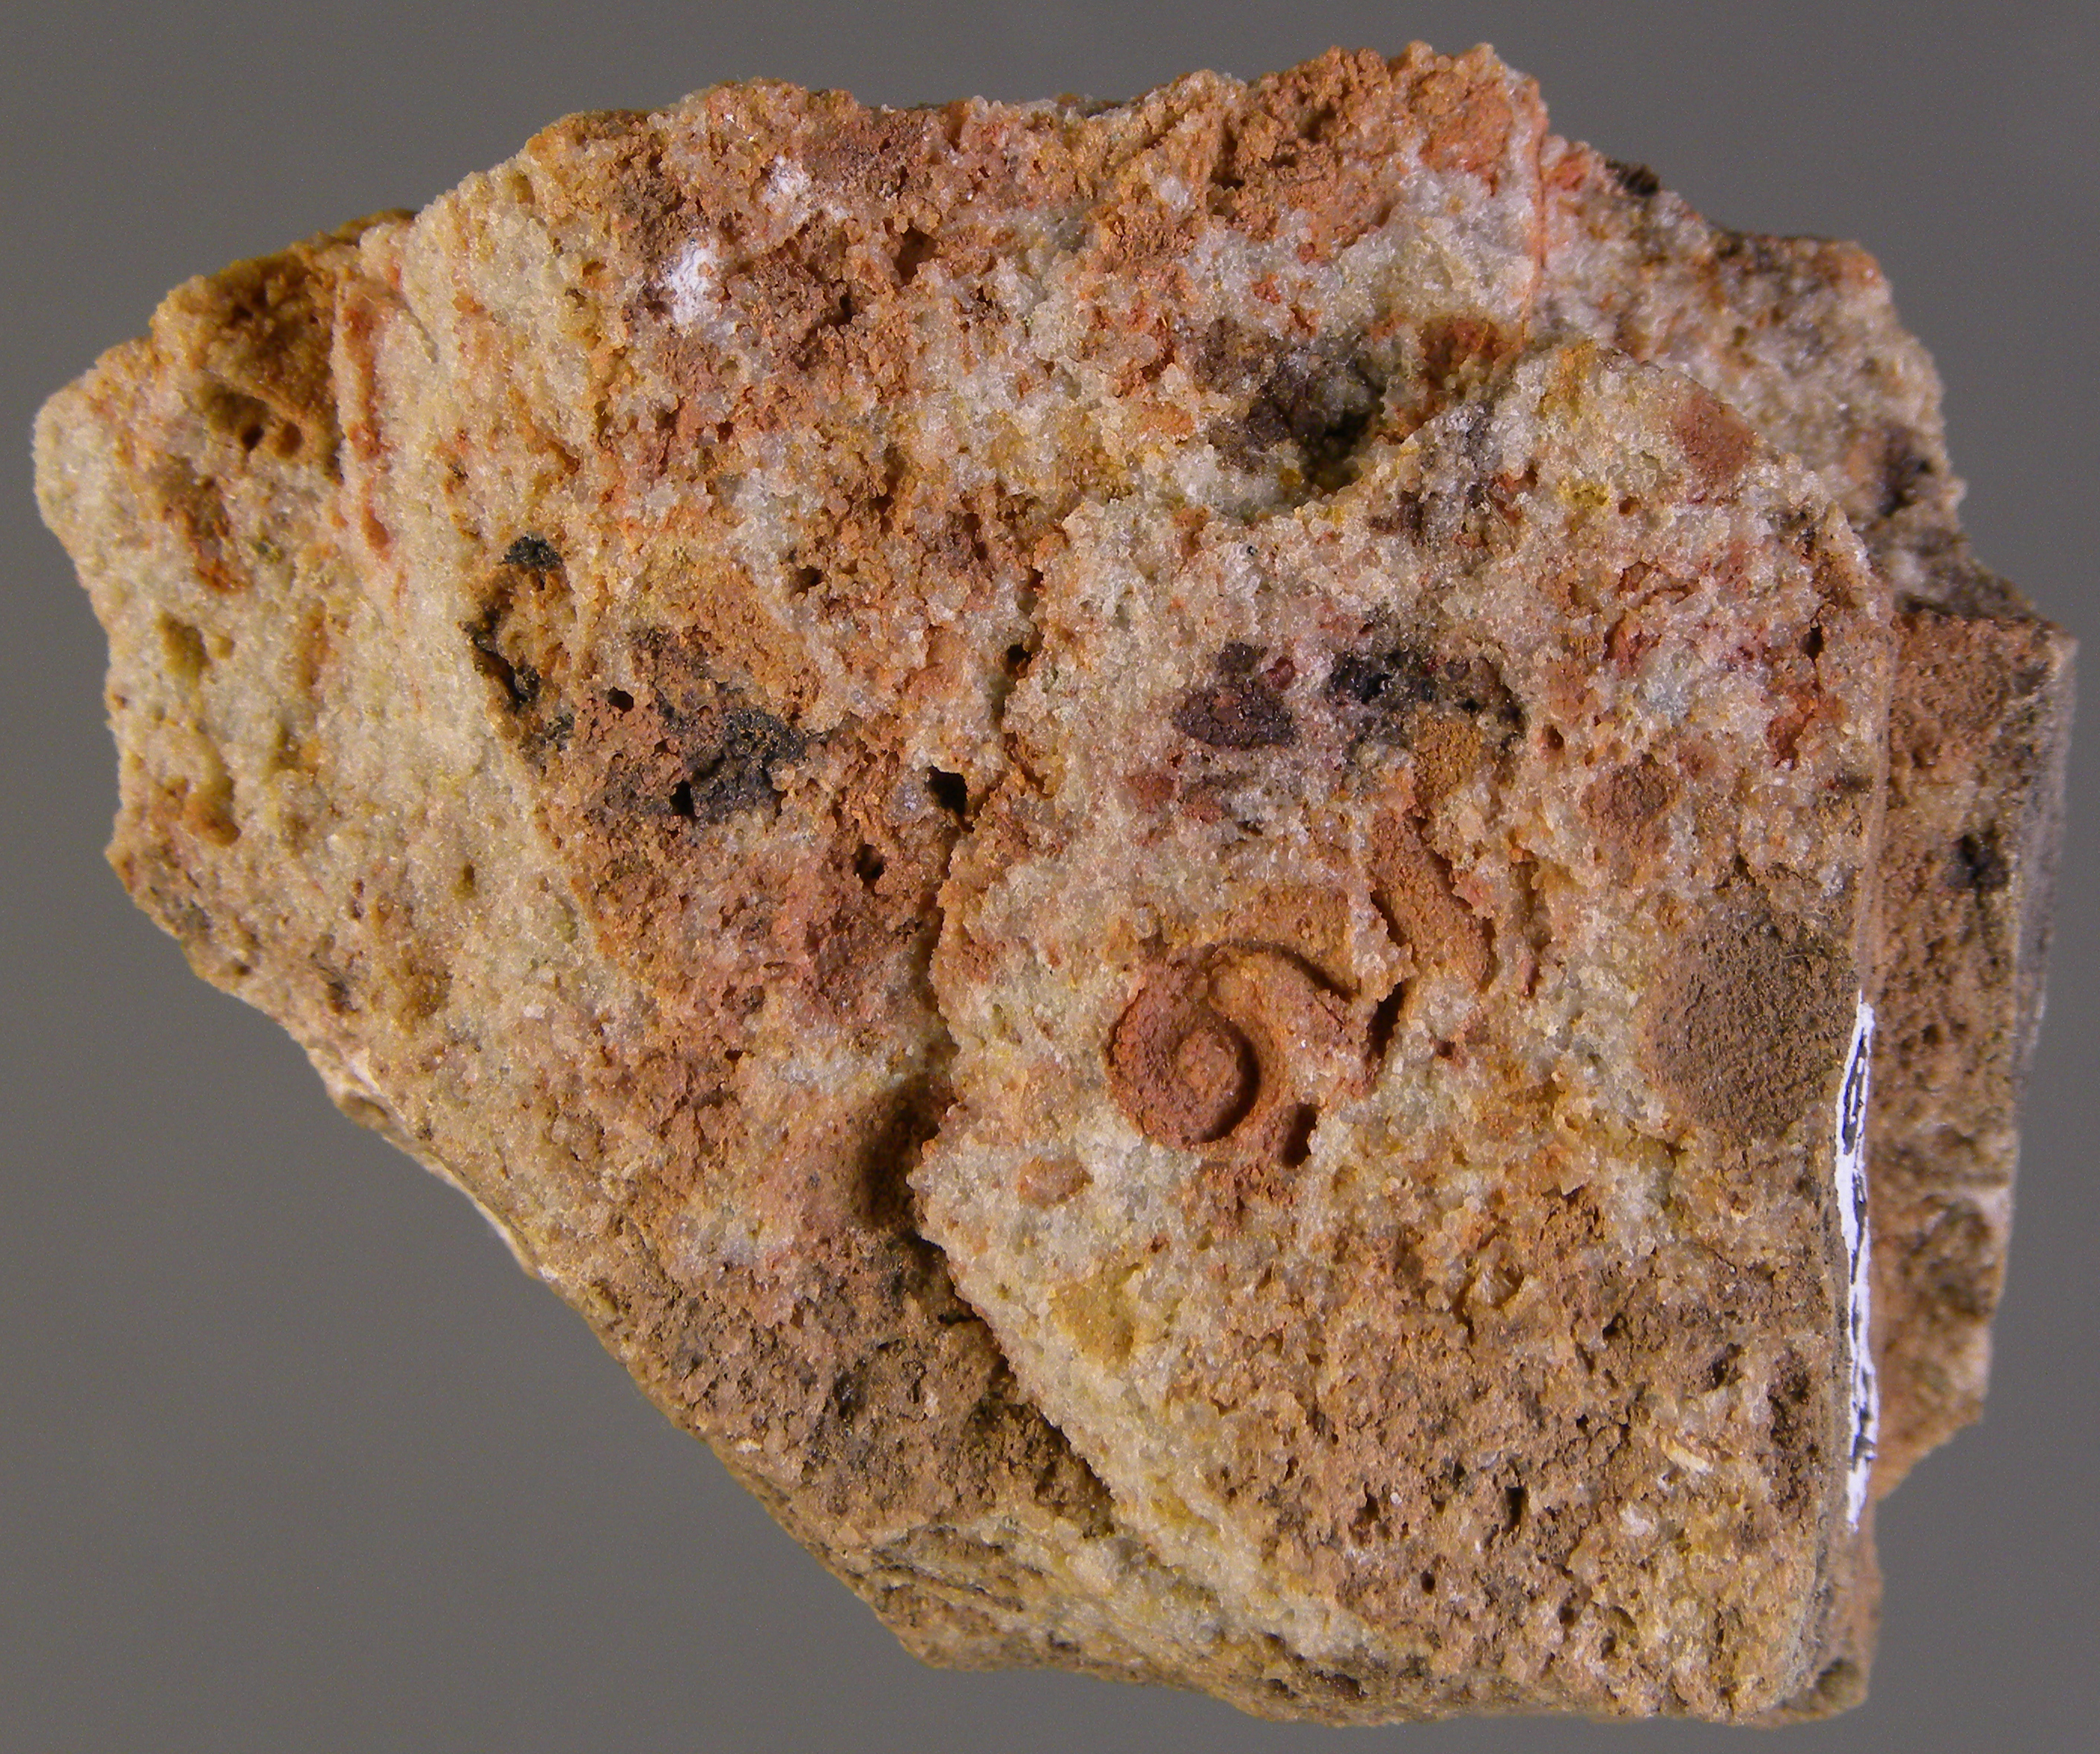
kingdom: Animalia
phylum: Mollusca
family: Tropidodiscidae
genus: Tropidodiscus
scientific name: Tropidodiscus
